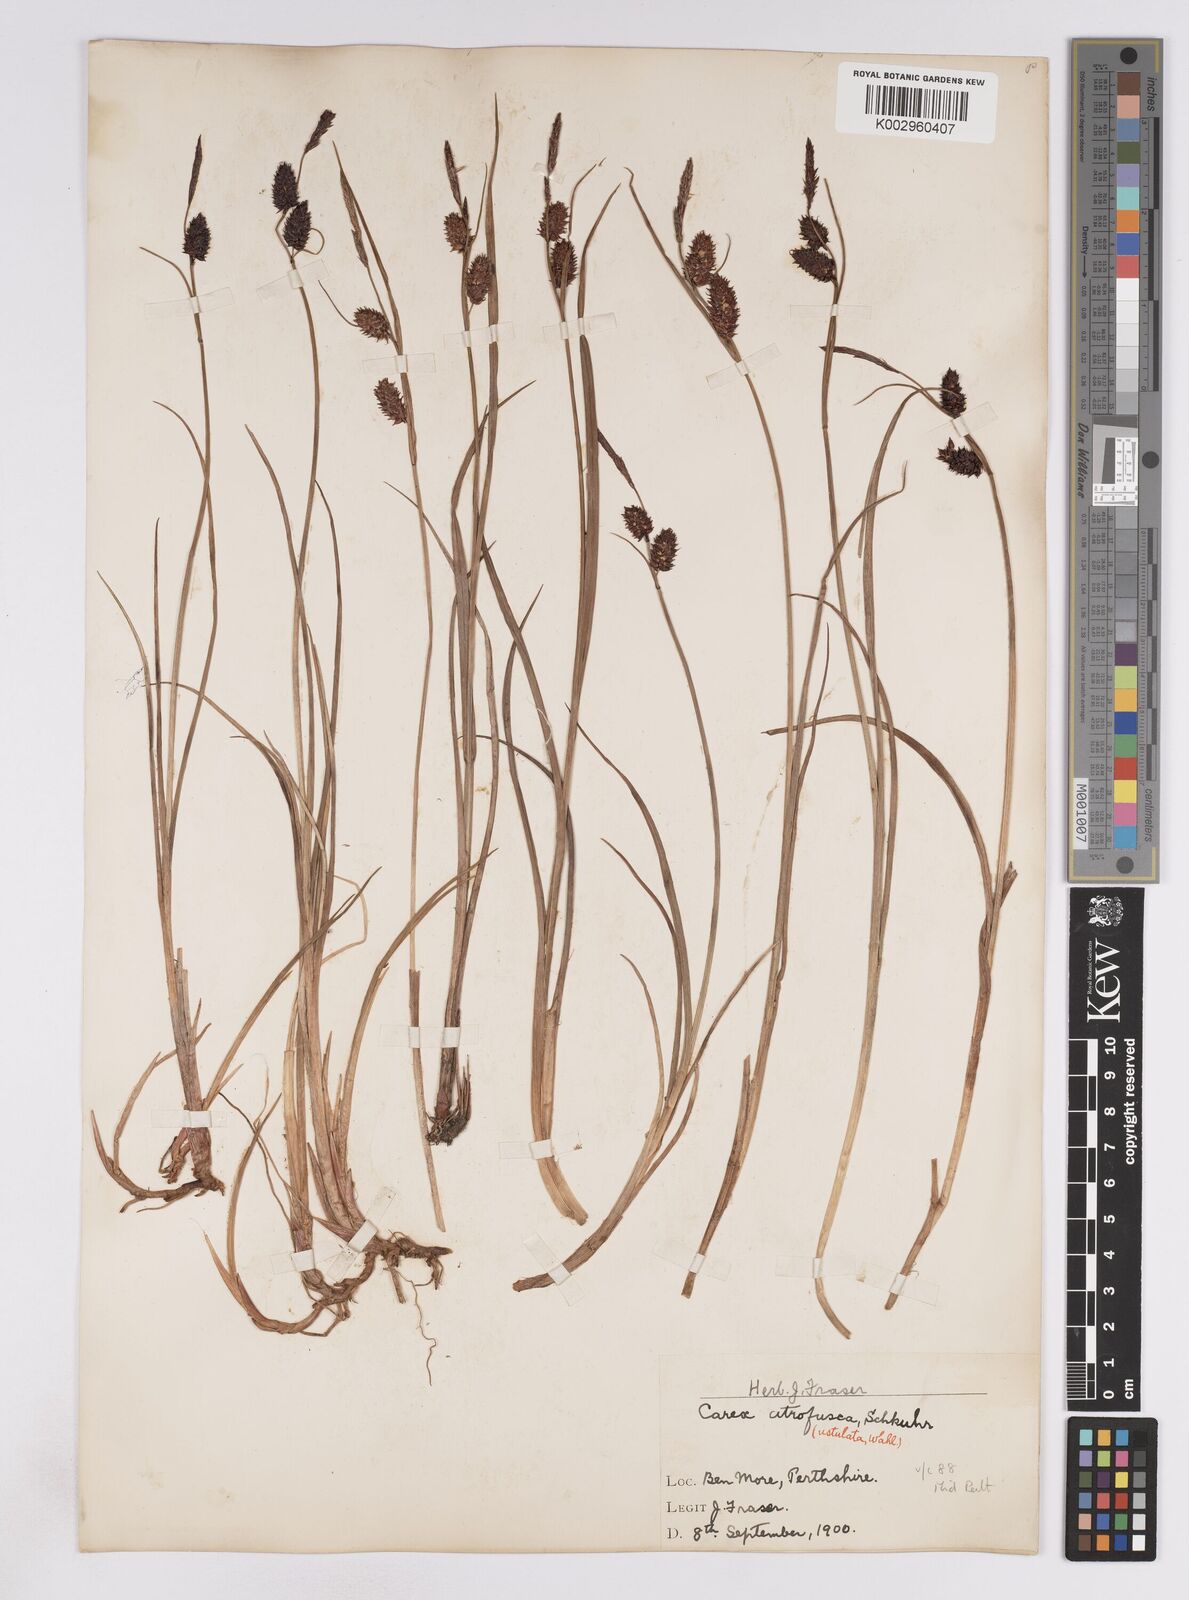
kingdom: Plantae
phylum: Tracheophyta
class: Liliopsida
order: Poales
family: Cyperaceae
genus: Carex
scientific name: Carex saxatilis
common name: Russet sedge
